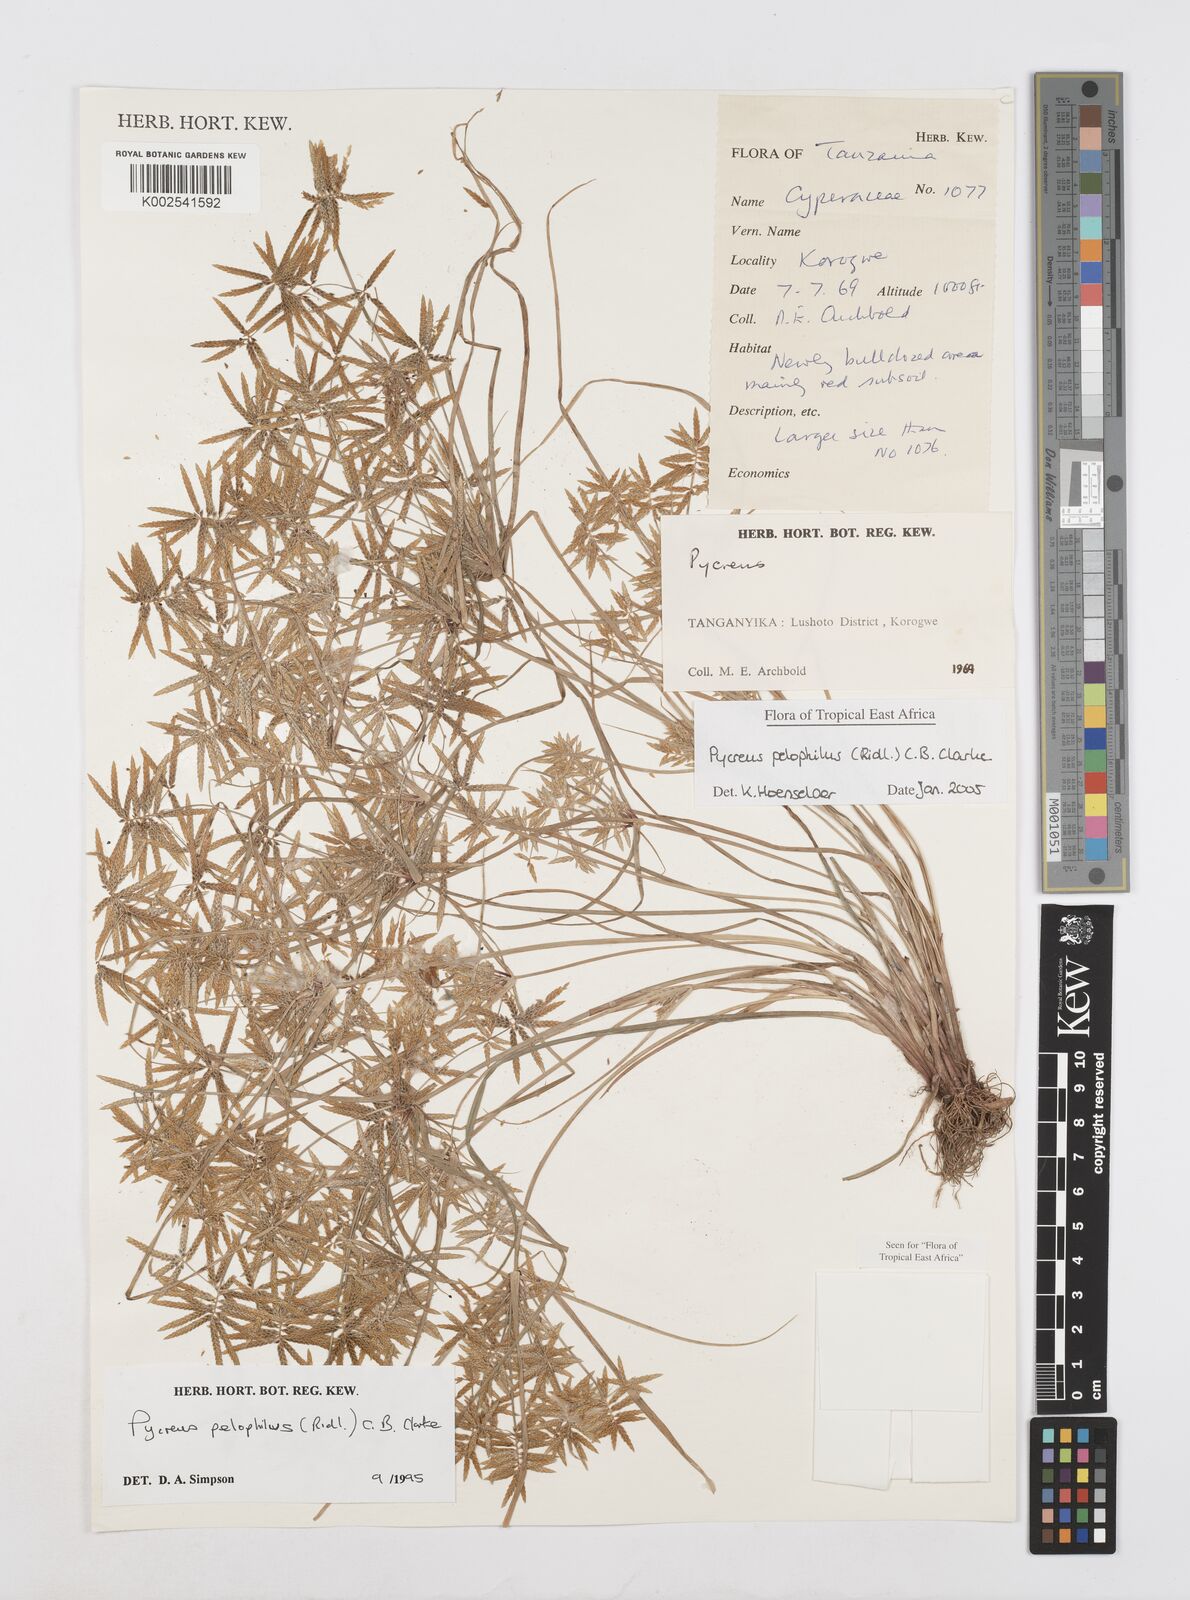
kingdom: Plantae
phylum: Tracheophyta
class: Liliopsida
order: Poales
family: Cyperaceae
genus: Cyperus
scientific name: Cyperus pelophilus
